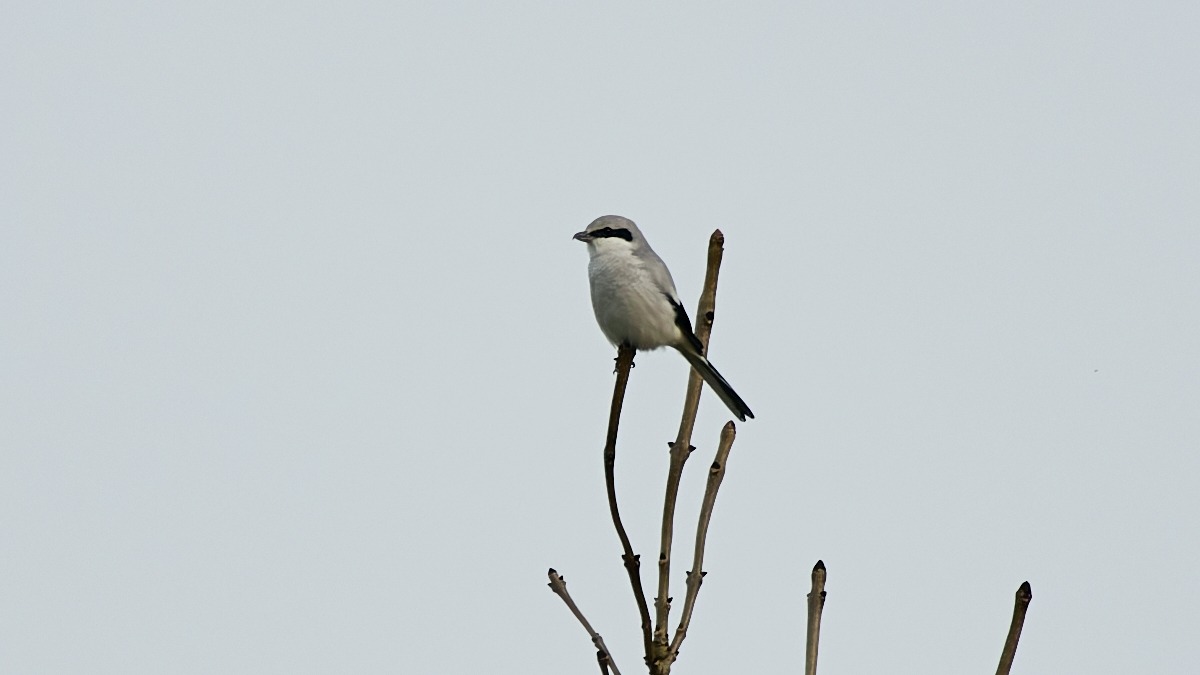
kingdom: Animalia
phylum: Chordata
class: Aves
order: Passeriformes
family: Laniidae
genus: Lanius
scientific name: Lanius excubitor
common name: Stor tornskade
